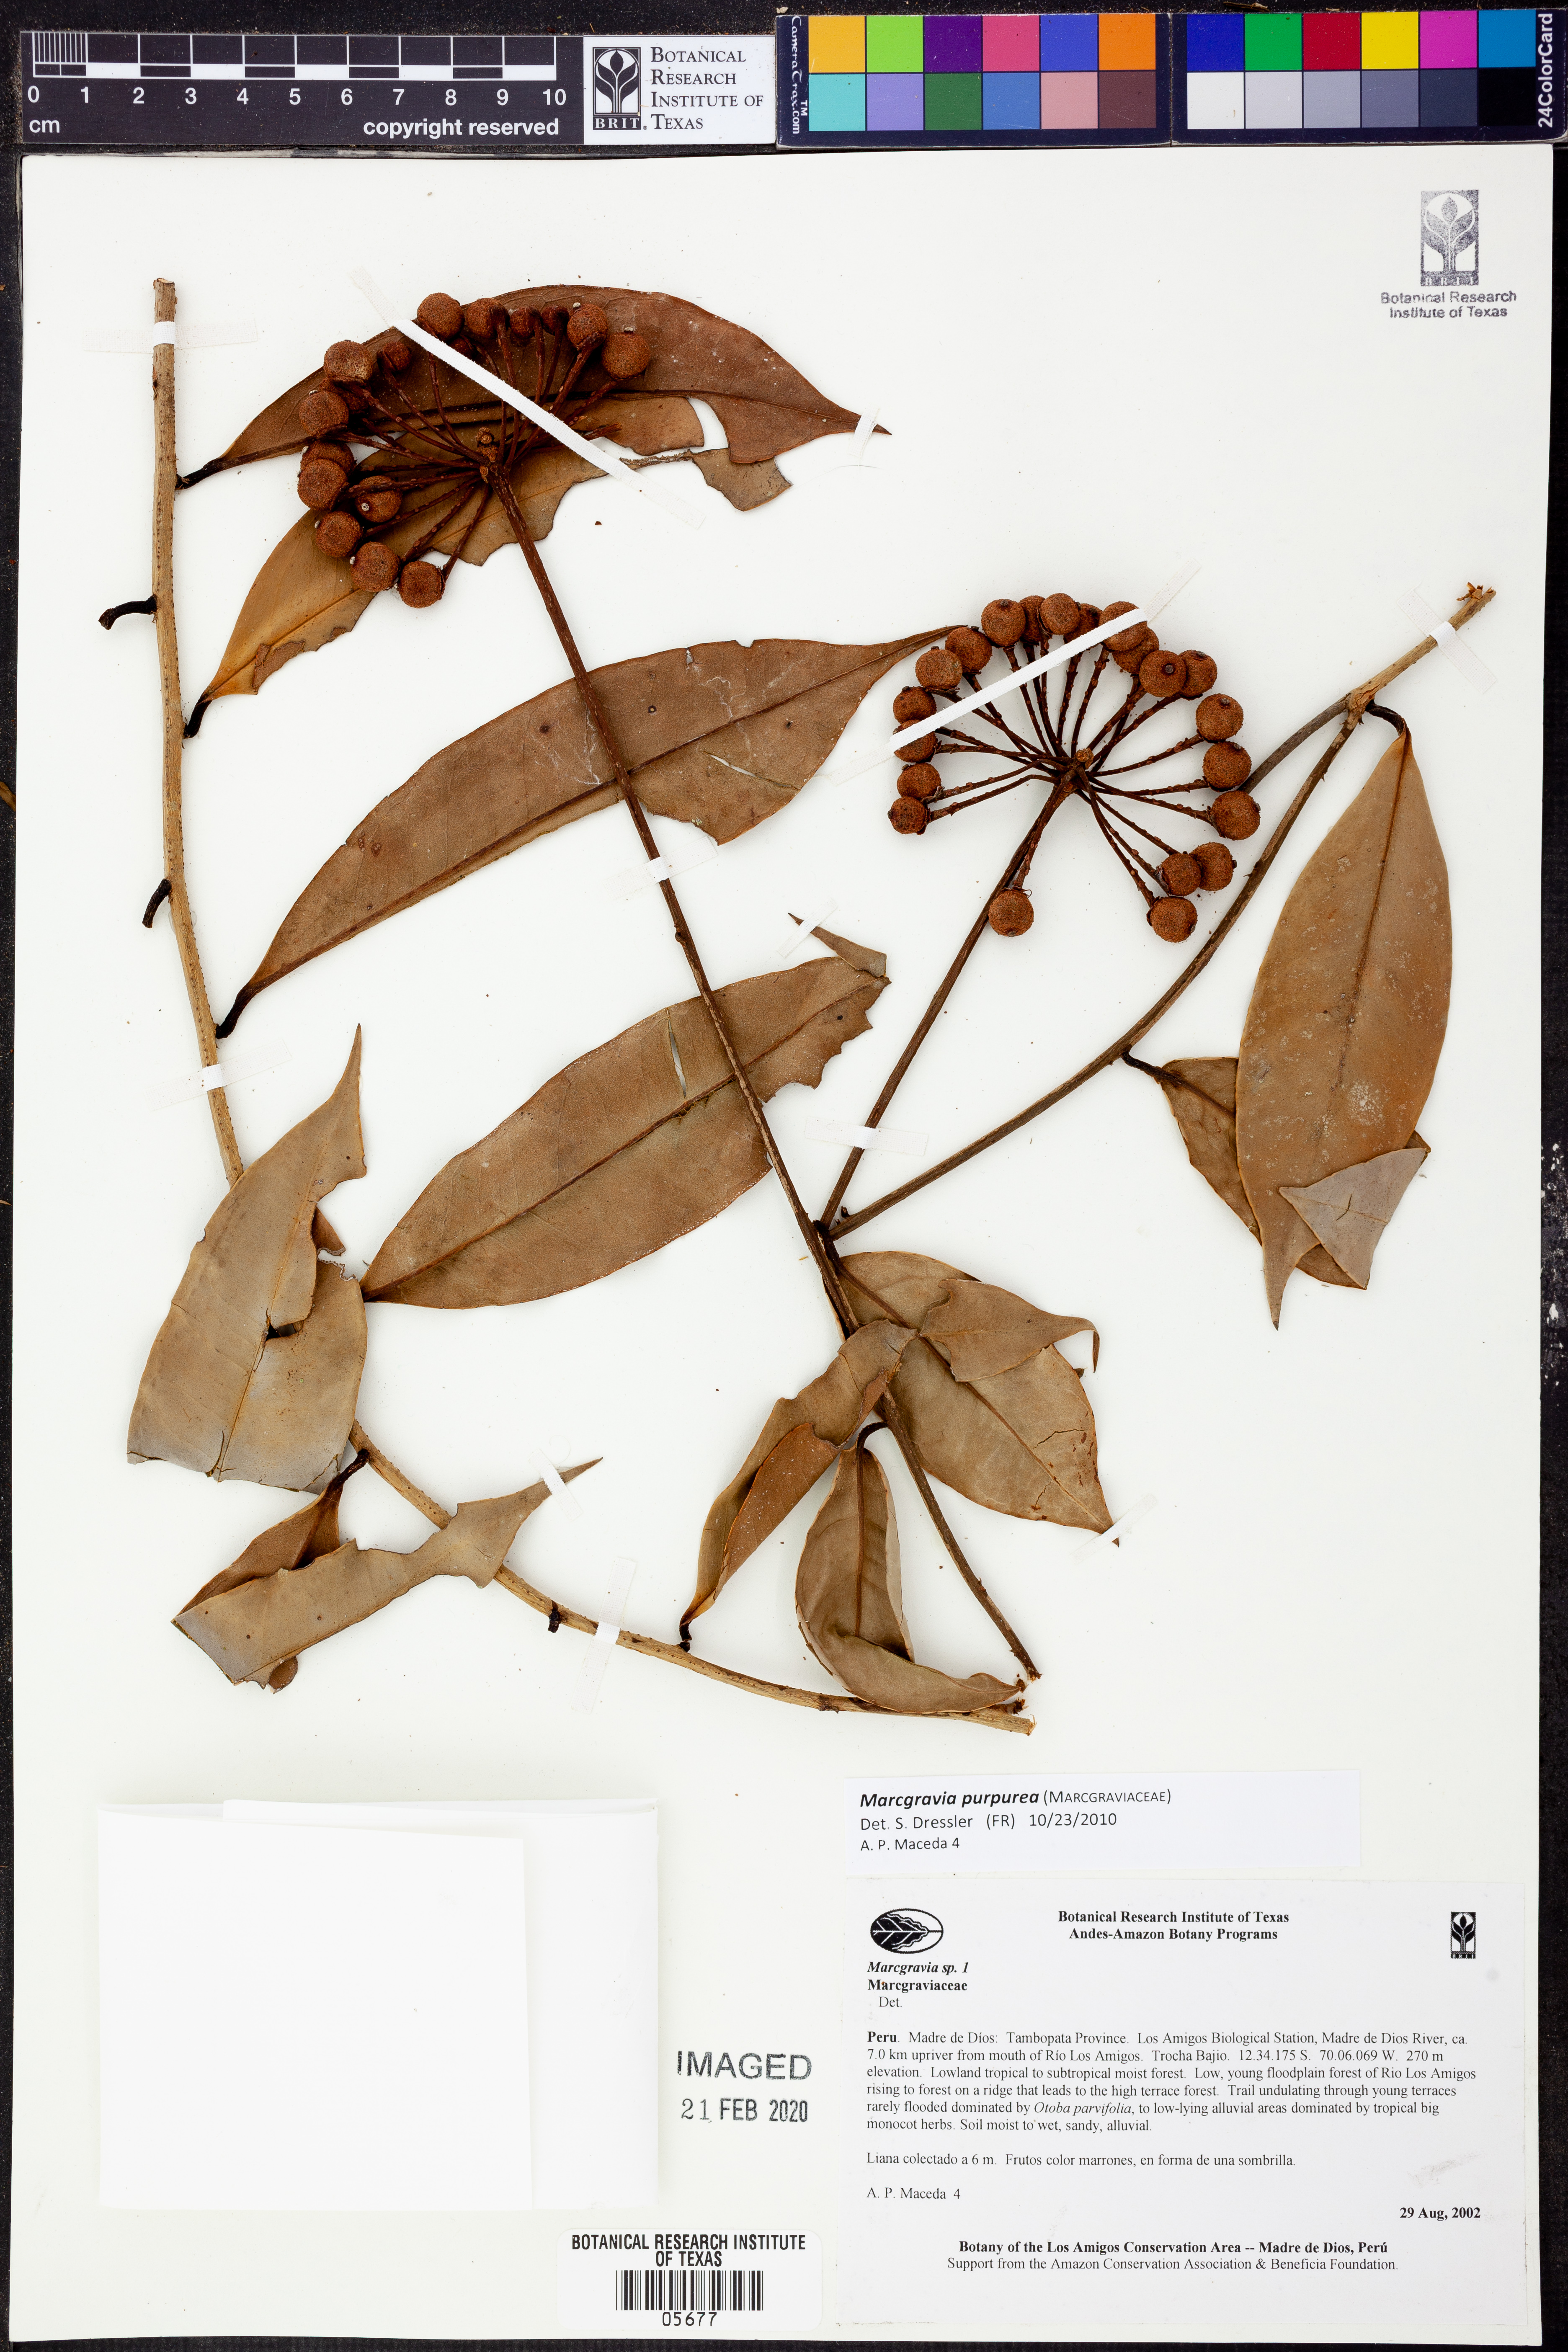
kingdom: Plantae
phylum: Tracheophyta
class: Magnoliopsida
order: Ericales
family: Marcgraviaceae
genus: Marcgravia
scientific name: Marcgravia
